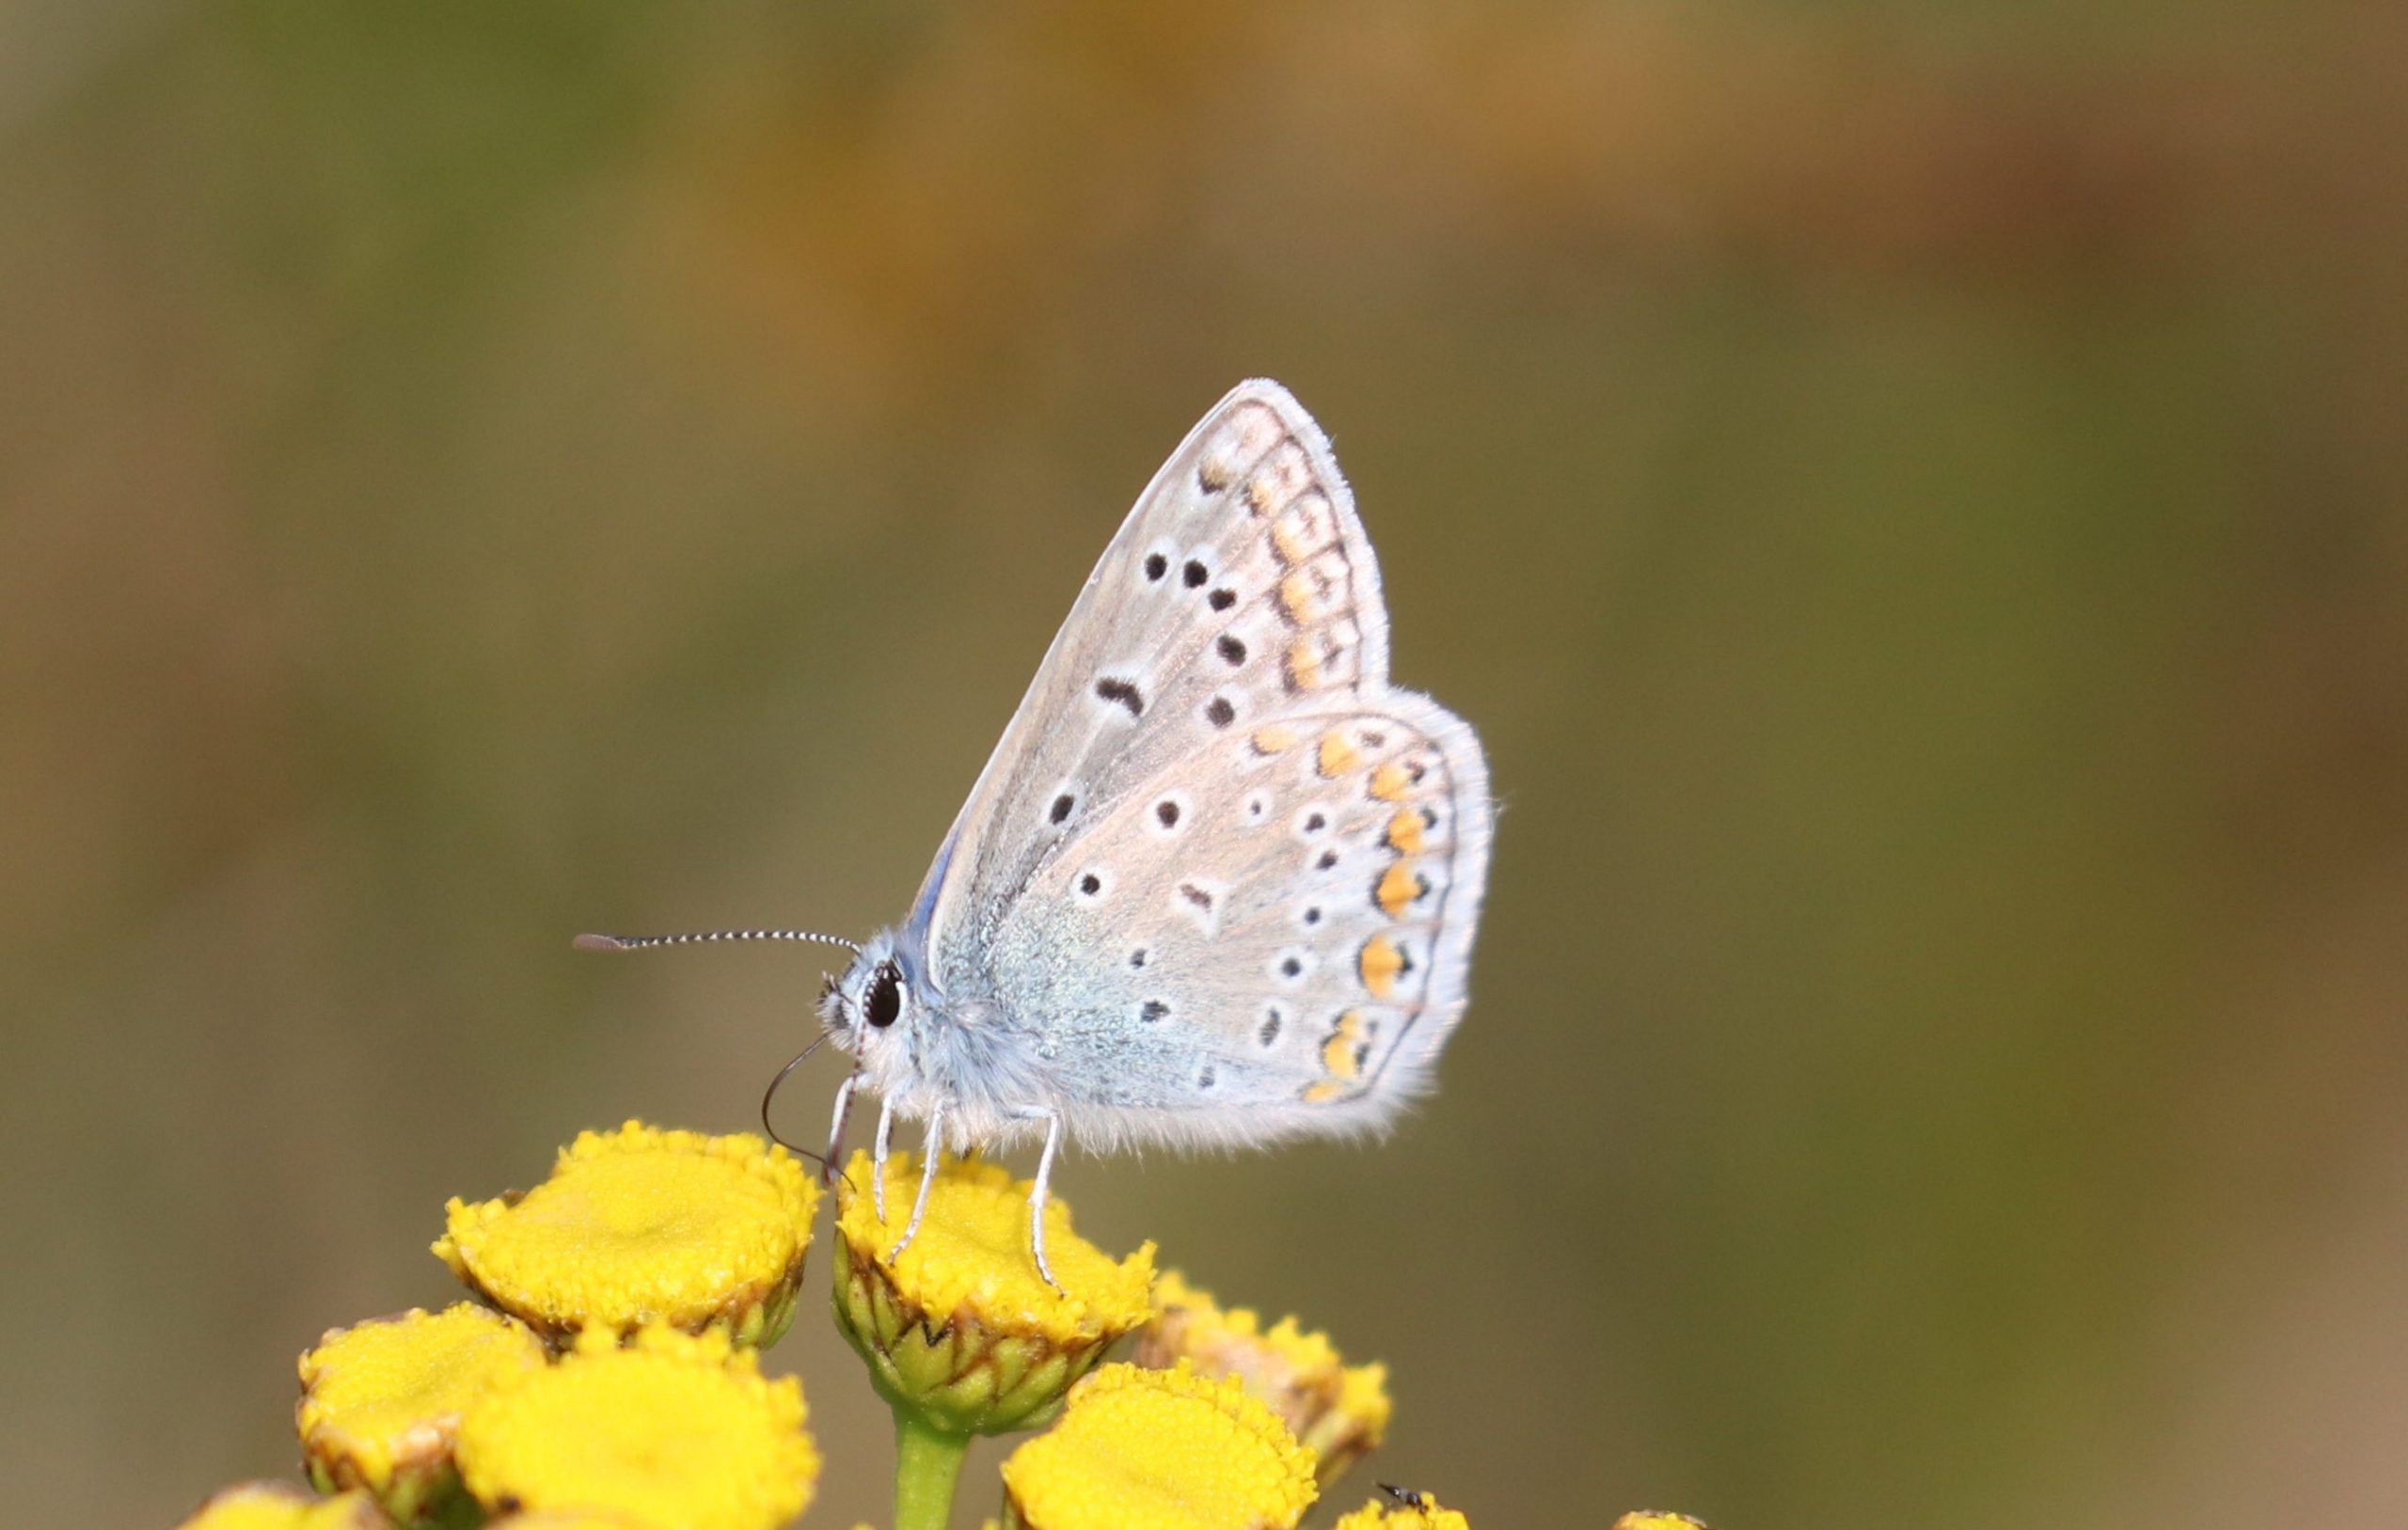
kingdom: Animalia
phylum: Arthropoda
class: Insecta
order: Lepidoptera
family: Lycaenidae
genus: Polyommatus
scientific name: Polyommatus icarus
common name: Almindelig blåfugl
